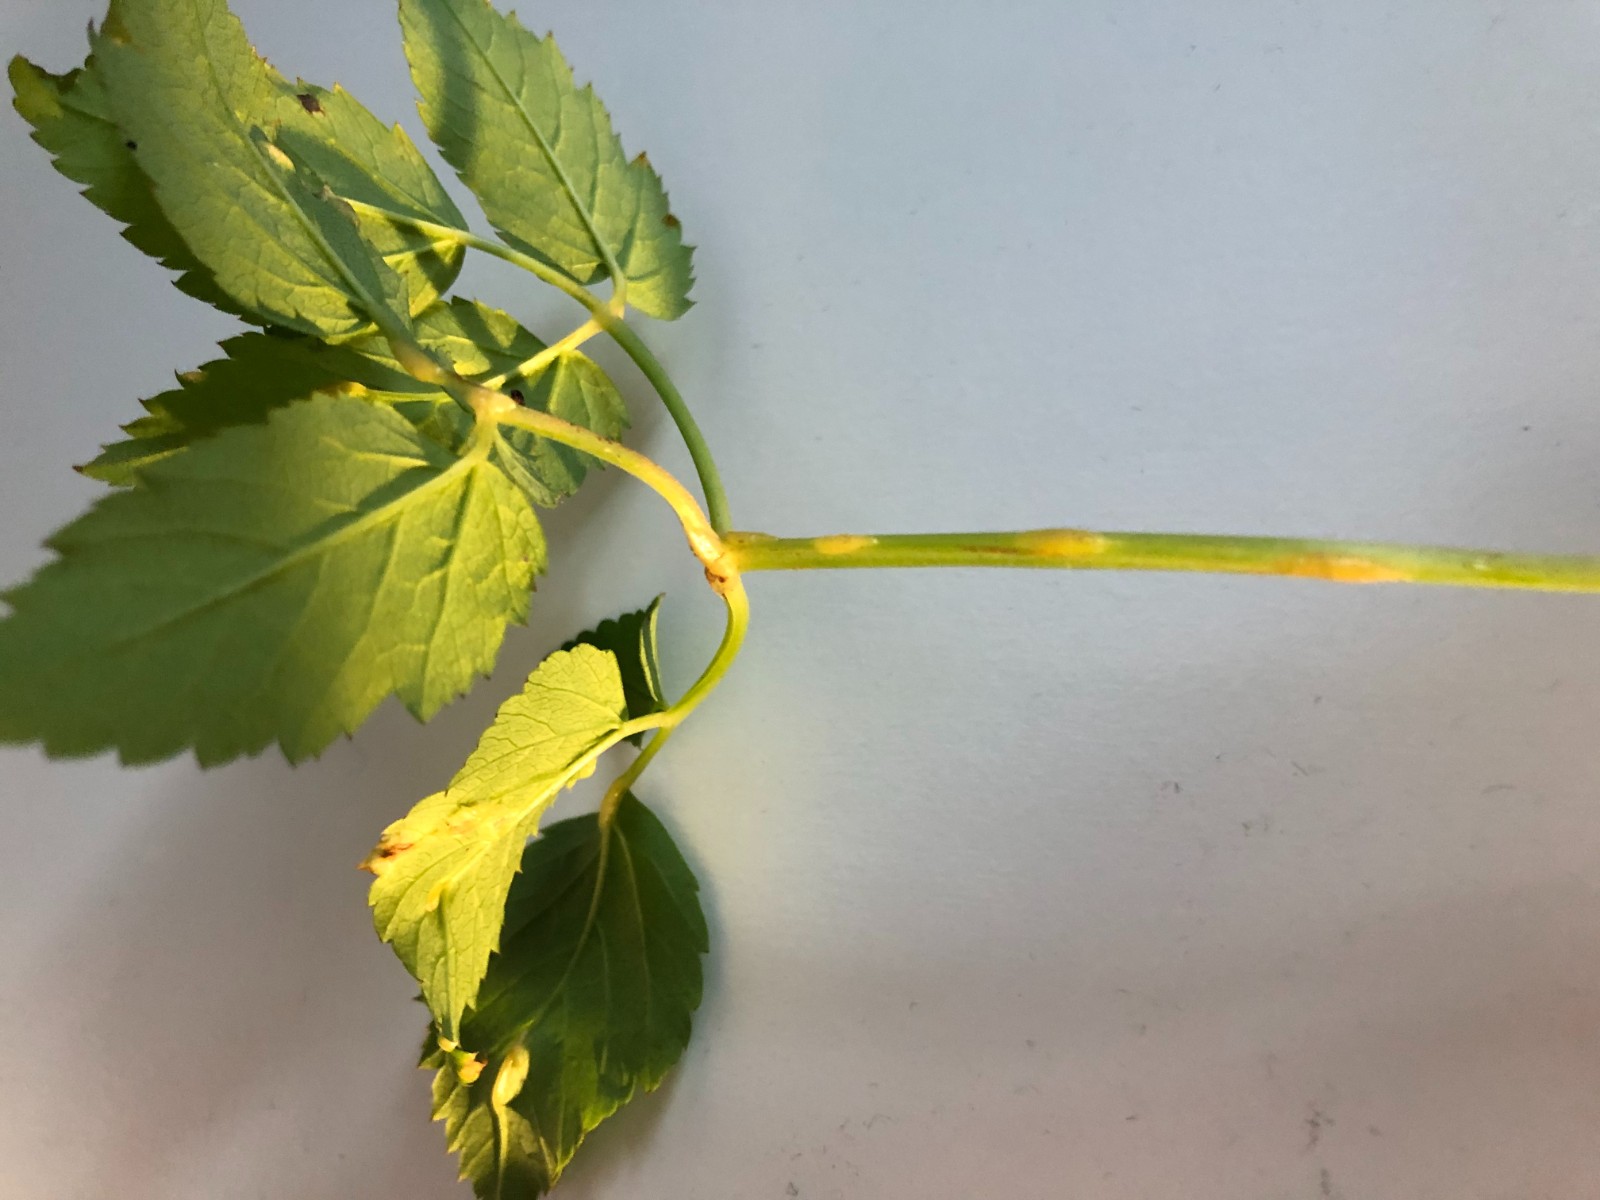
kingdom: Fungi
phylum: Ascomycota
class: Taphrinomycetes
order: Taphrinales
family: Taphrinaceae
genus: Protomyces
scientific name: Protomyces macrosporus
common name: skvalderkål-vablesæk
